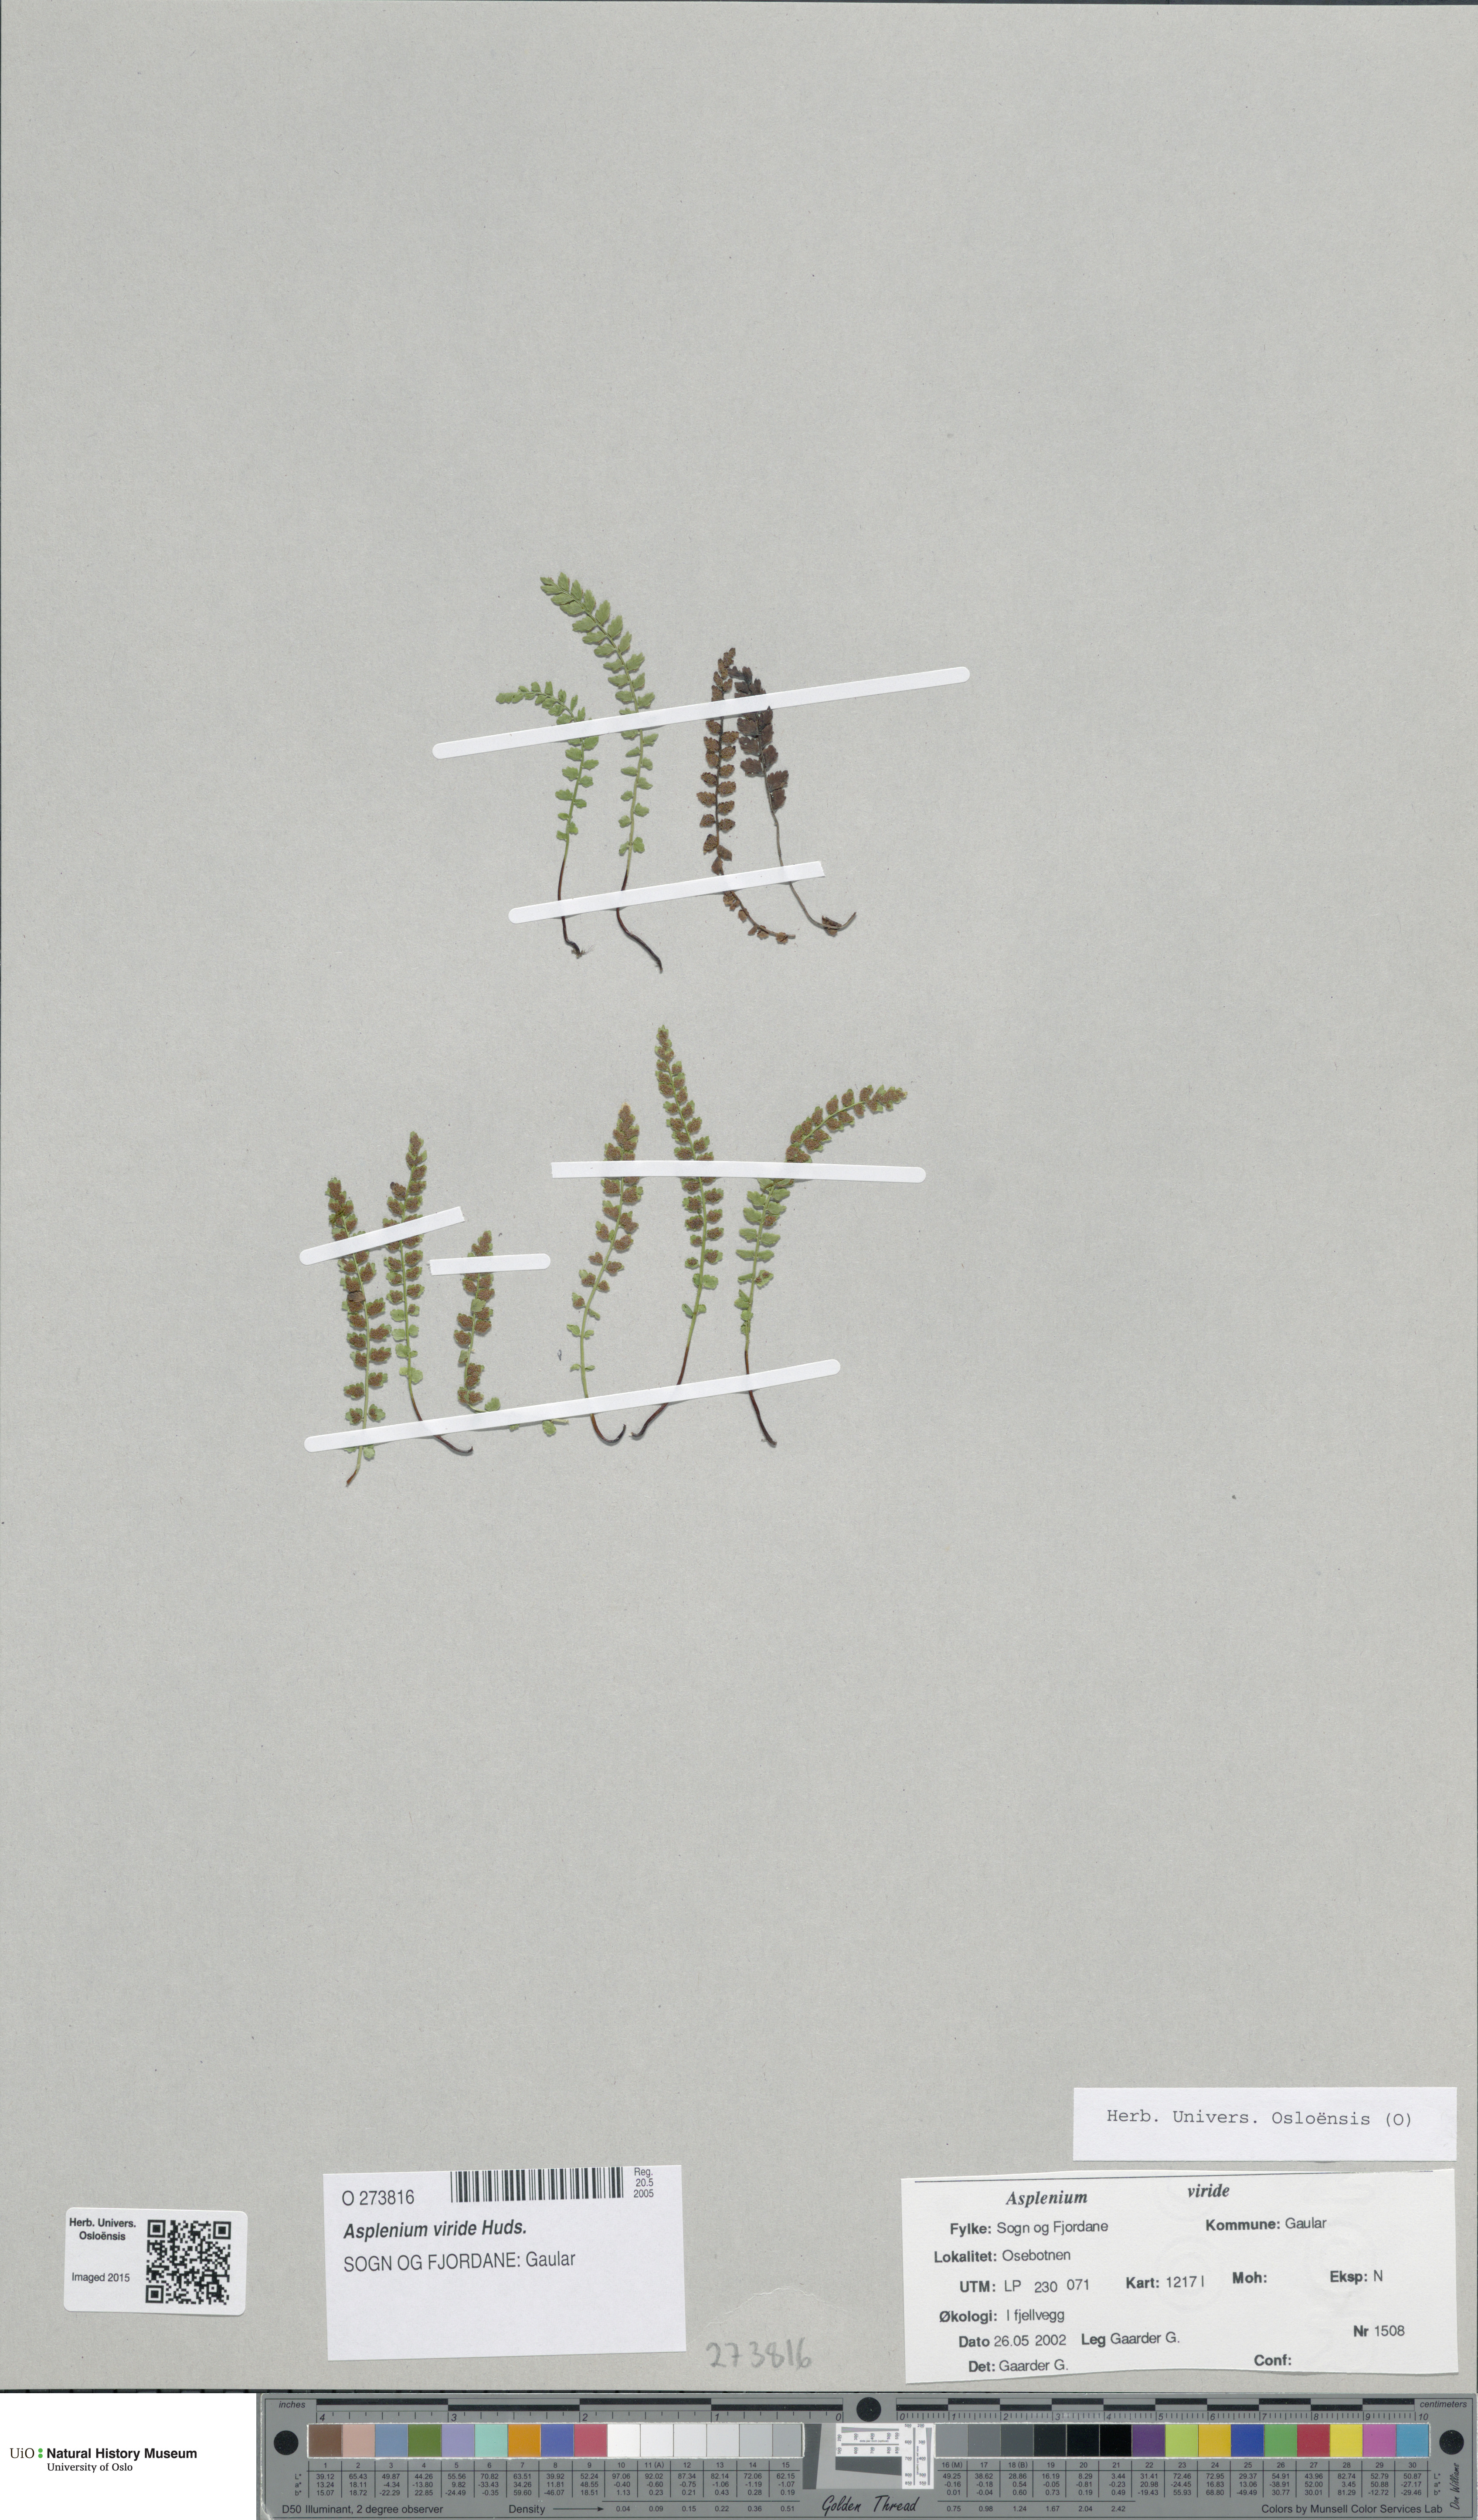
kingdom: Plantae
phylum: Tracheophyta
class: Polypodiopsida
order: Polypodiales
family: Aspleniaceae
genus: Asplenium
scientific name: Asplenium viride
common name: Green spleenwort
